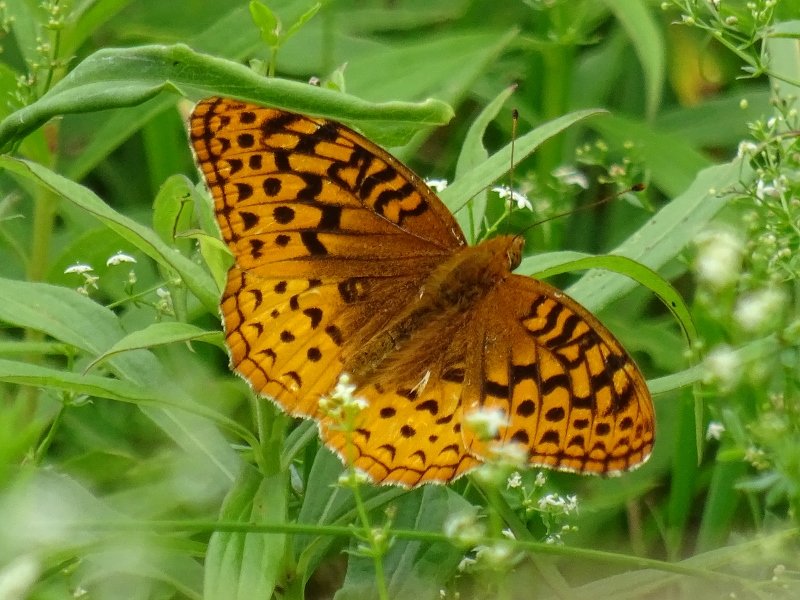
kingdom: Animalia
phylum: Arthropoda
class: Insecta
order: Lepidoptera
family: Nymphalidae
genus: Speyeria
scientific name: Speyeria cybele
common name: Great Spangled Fritillary
